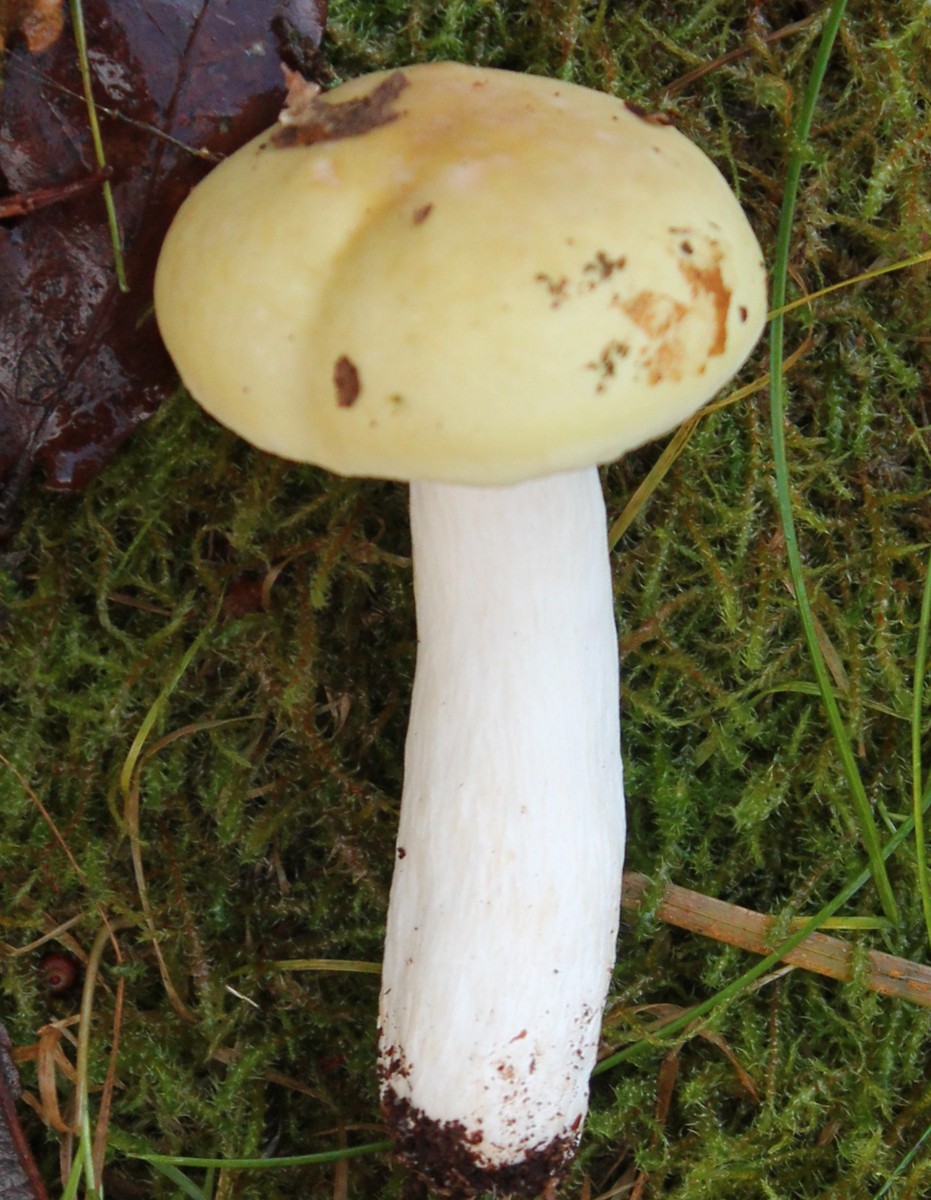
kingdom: Fungi
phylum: Basidiomycota
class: Agaricomycetes
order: Russulales
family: Russulaceae
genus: Russula
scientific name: Russula
